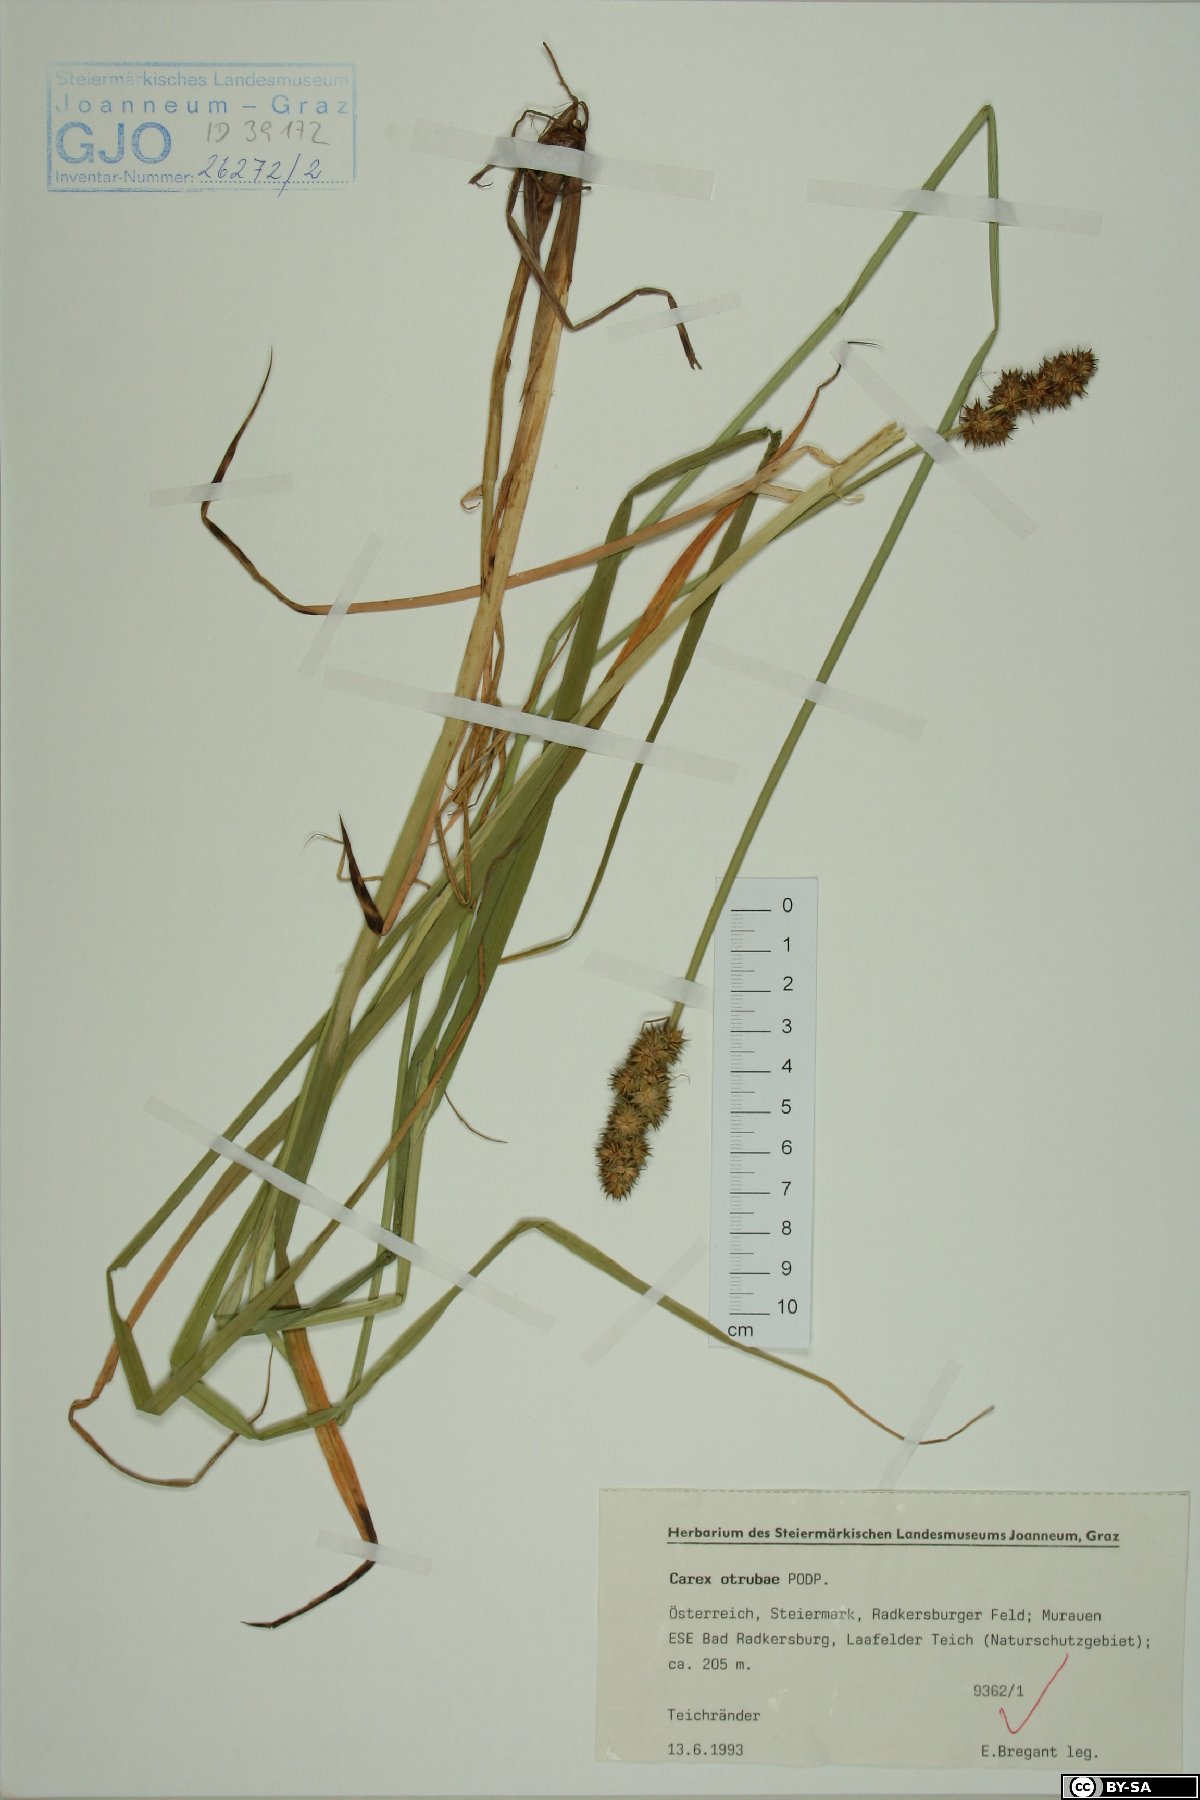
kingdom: Plantae
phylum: Tracheophyta
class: Liliopsida
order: Poales
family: Cyperaceae
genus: Carex
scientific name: Carex otrubae
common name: False fox-sedge
